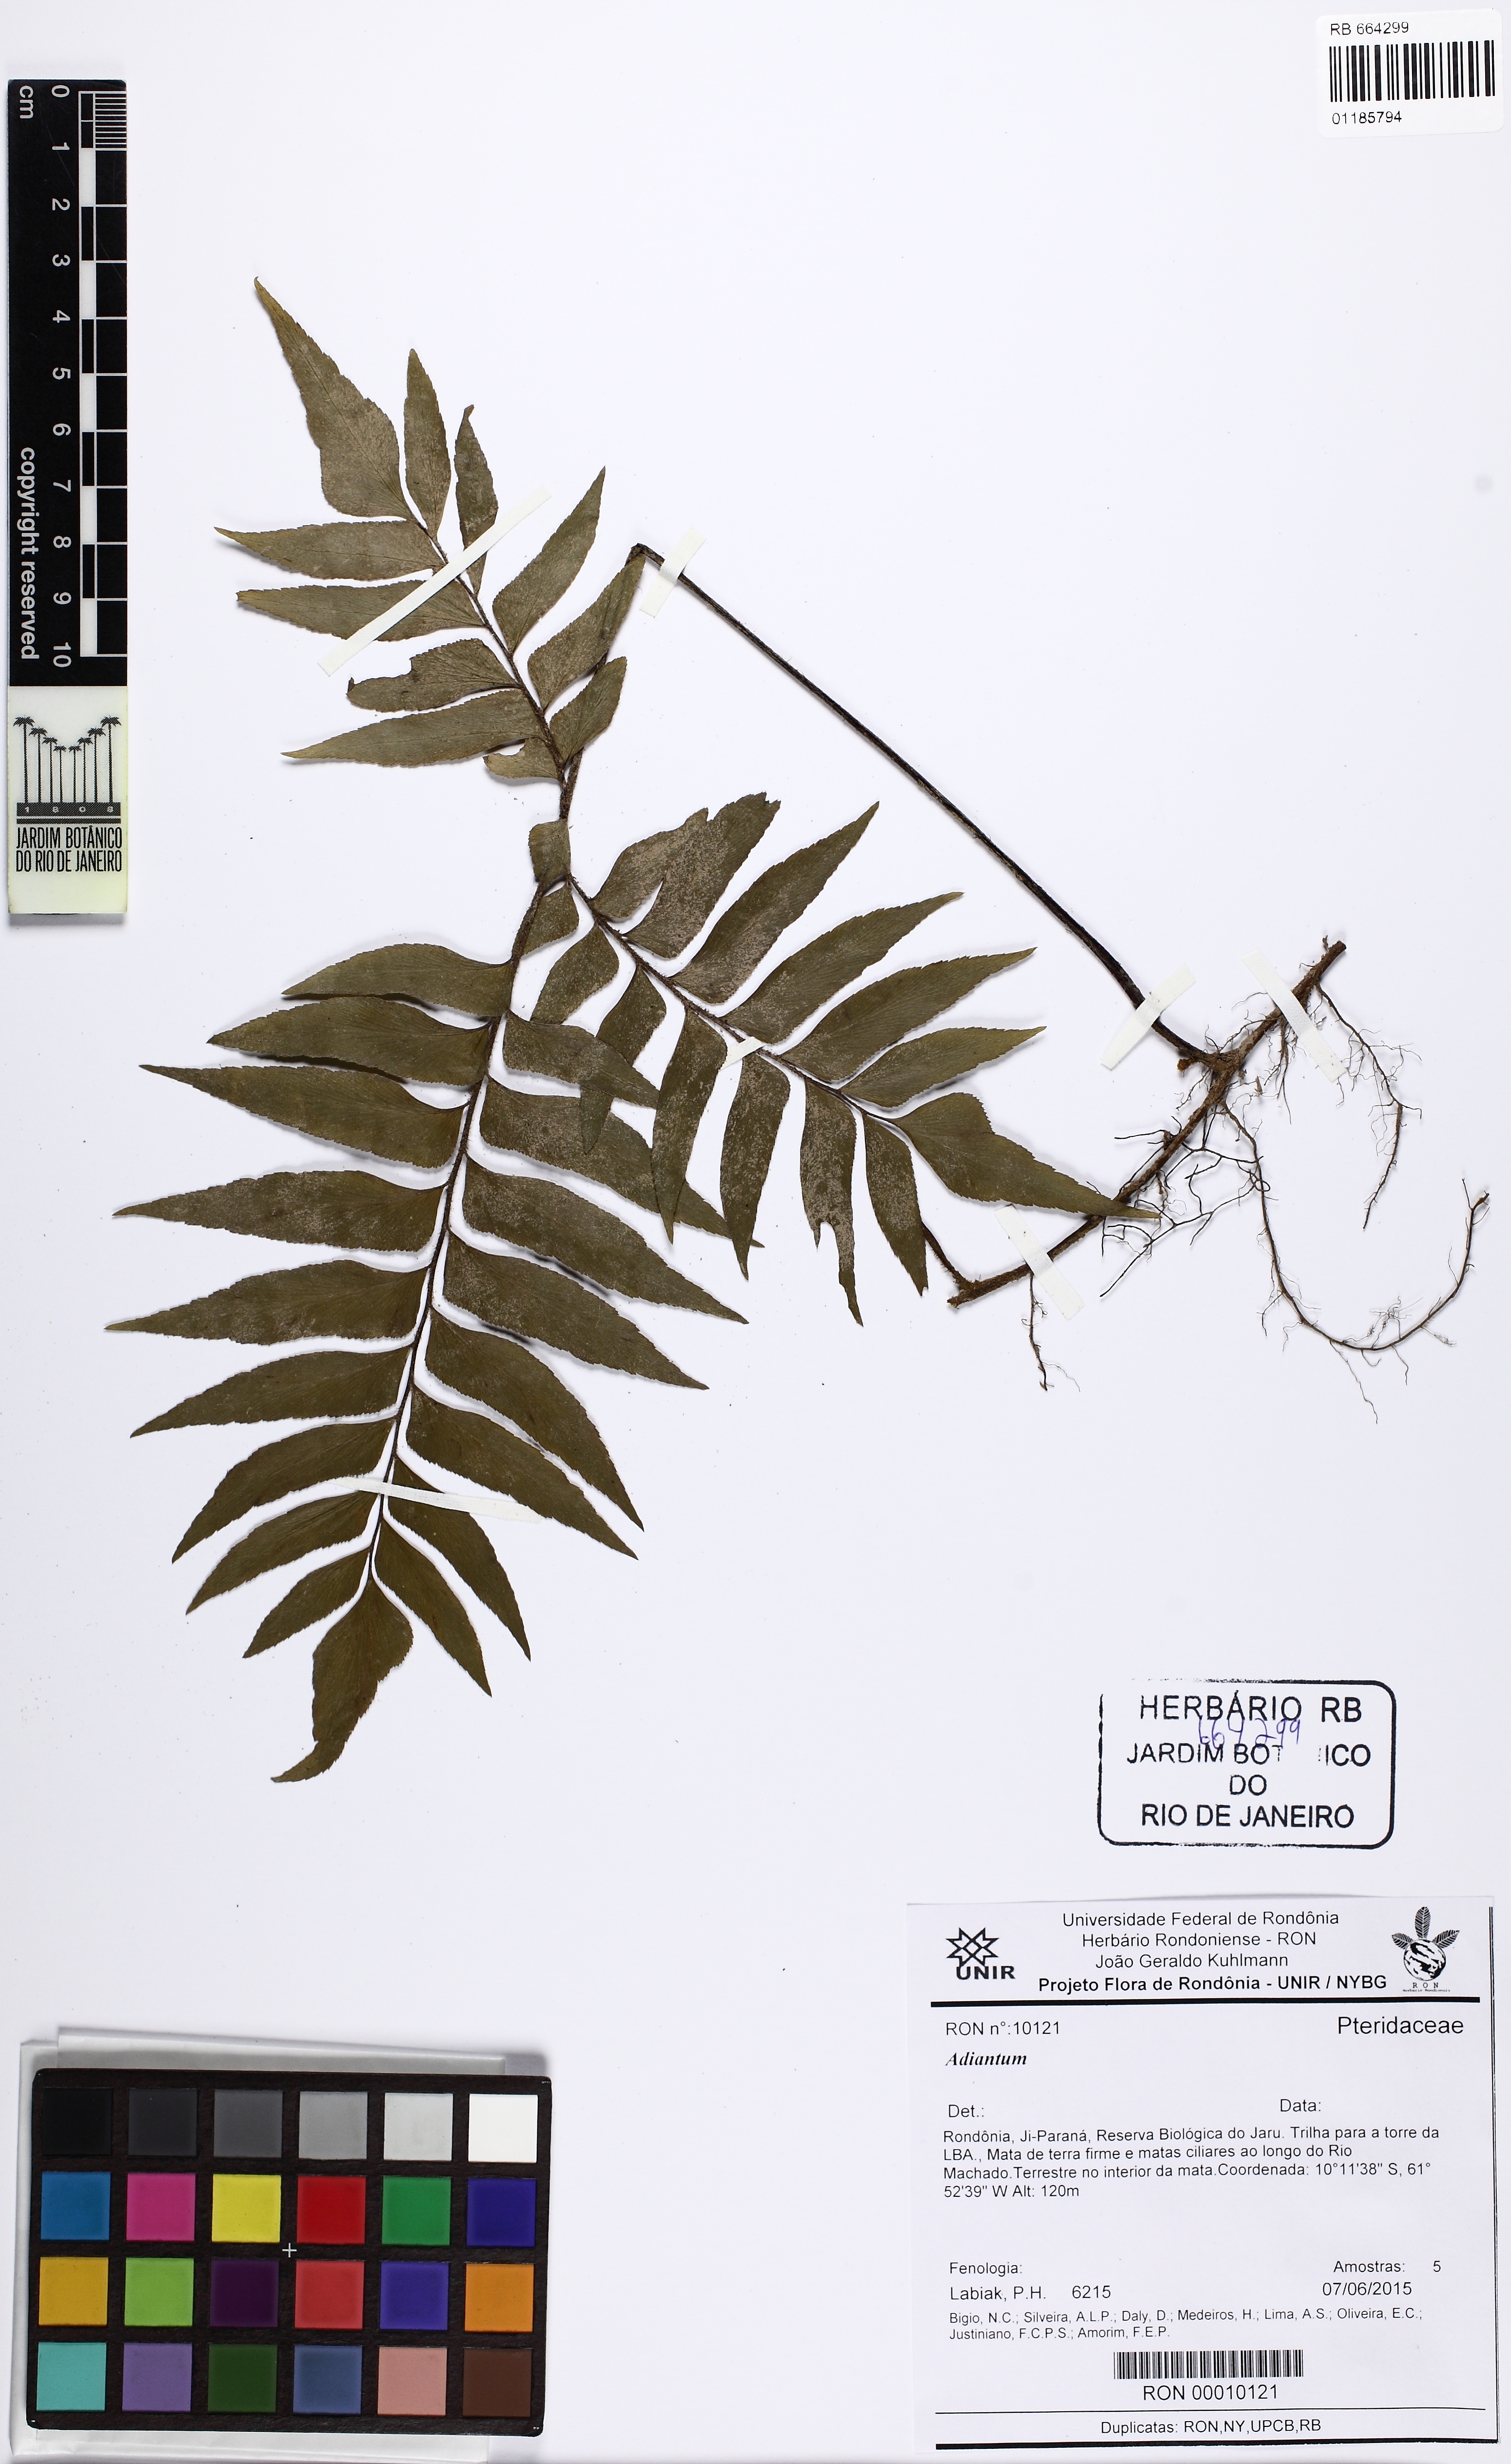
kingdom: Plantae
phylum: Tracheophyta
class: Polypodiopsida
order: Polypodiales
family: Pteridaceae
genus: Adiantum
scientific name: Adiantum
